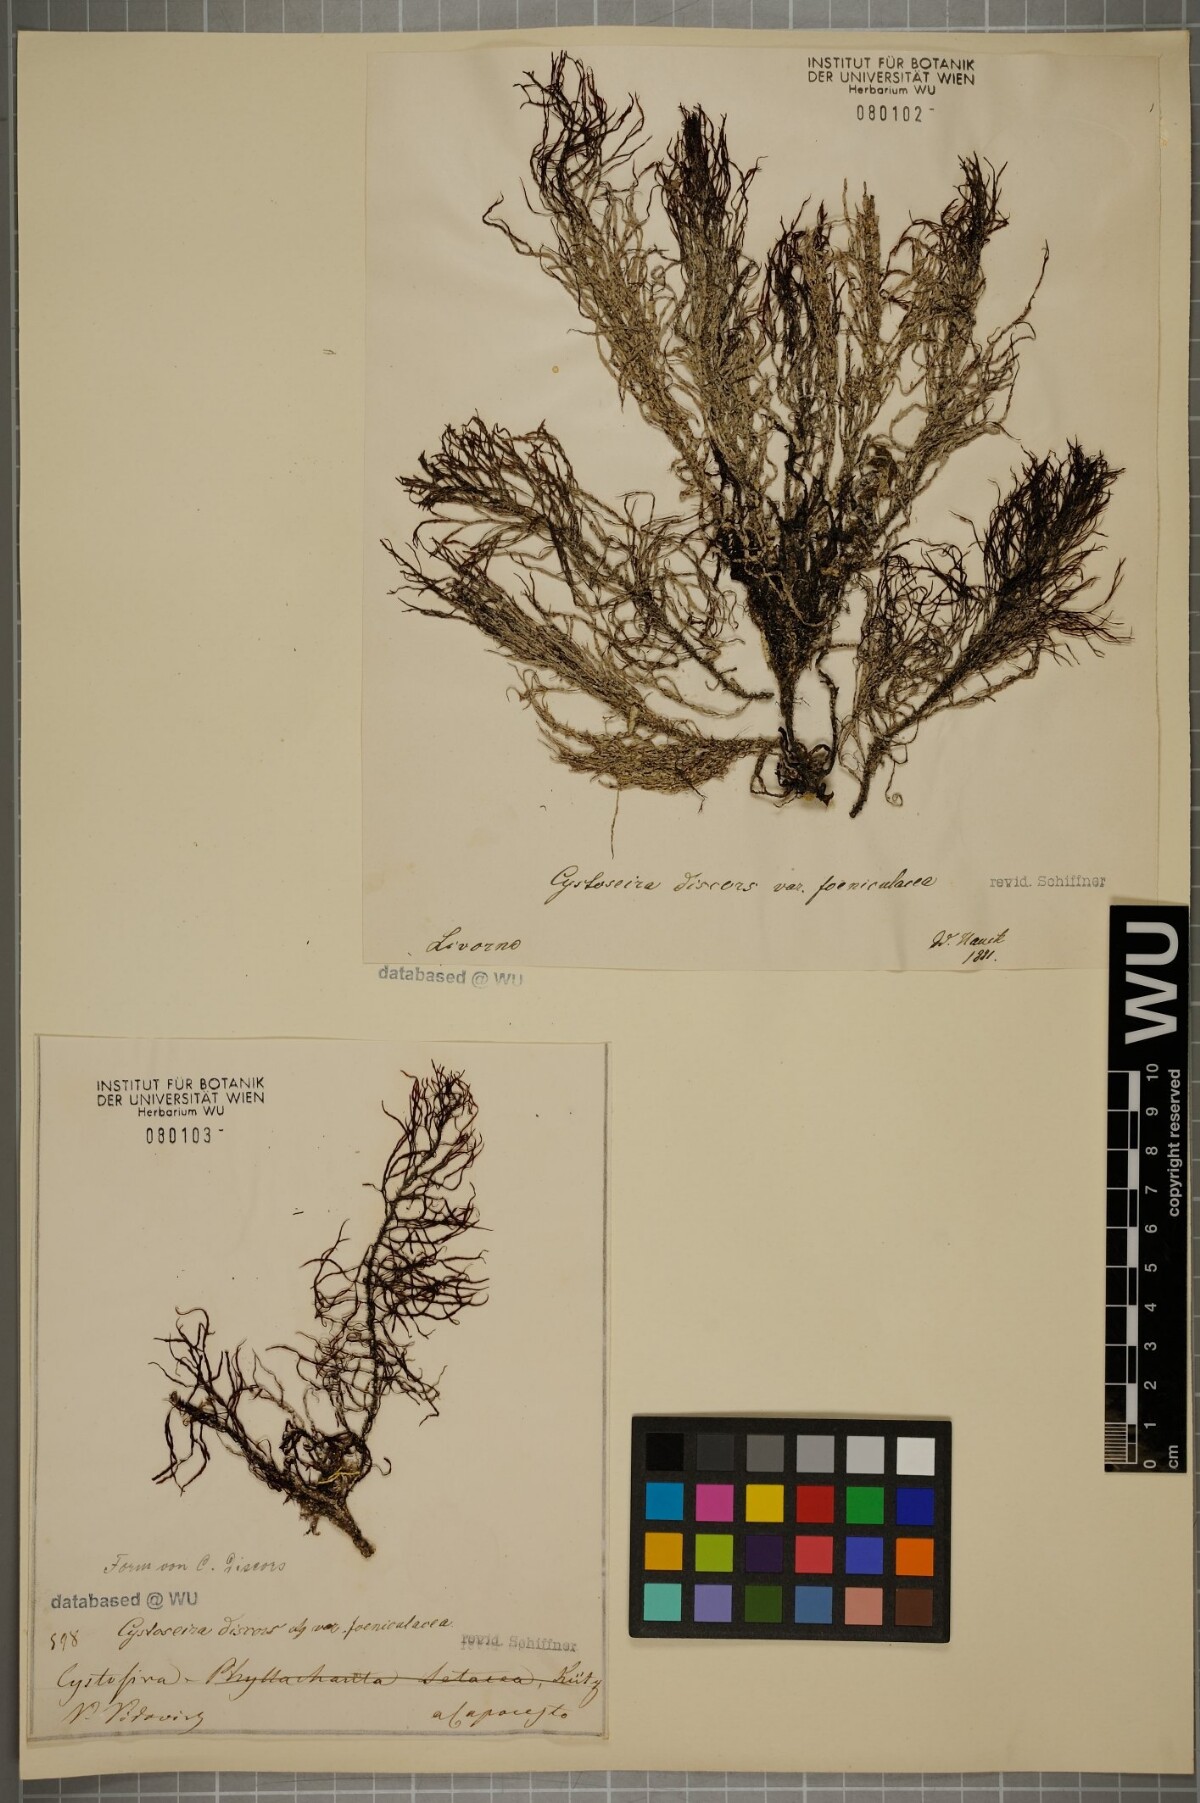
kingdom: Chromista
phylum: Ochrophyta
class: Phaeophyceae
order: Fucales
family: Sargassaceae
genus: Cystoseira
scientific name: Cystoseira foeniculacea
